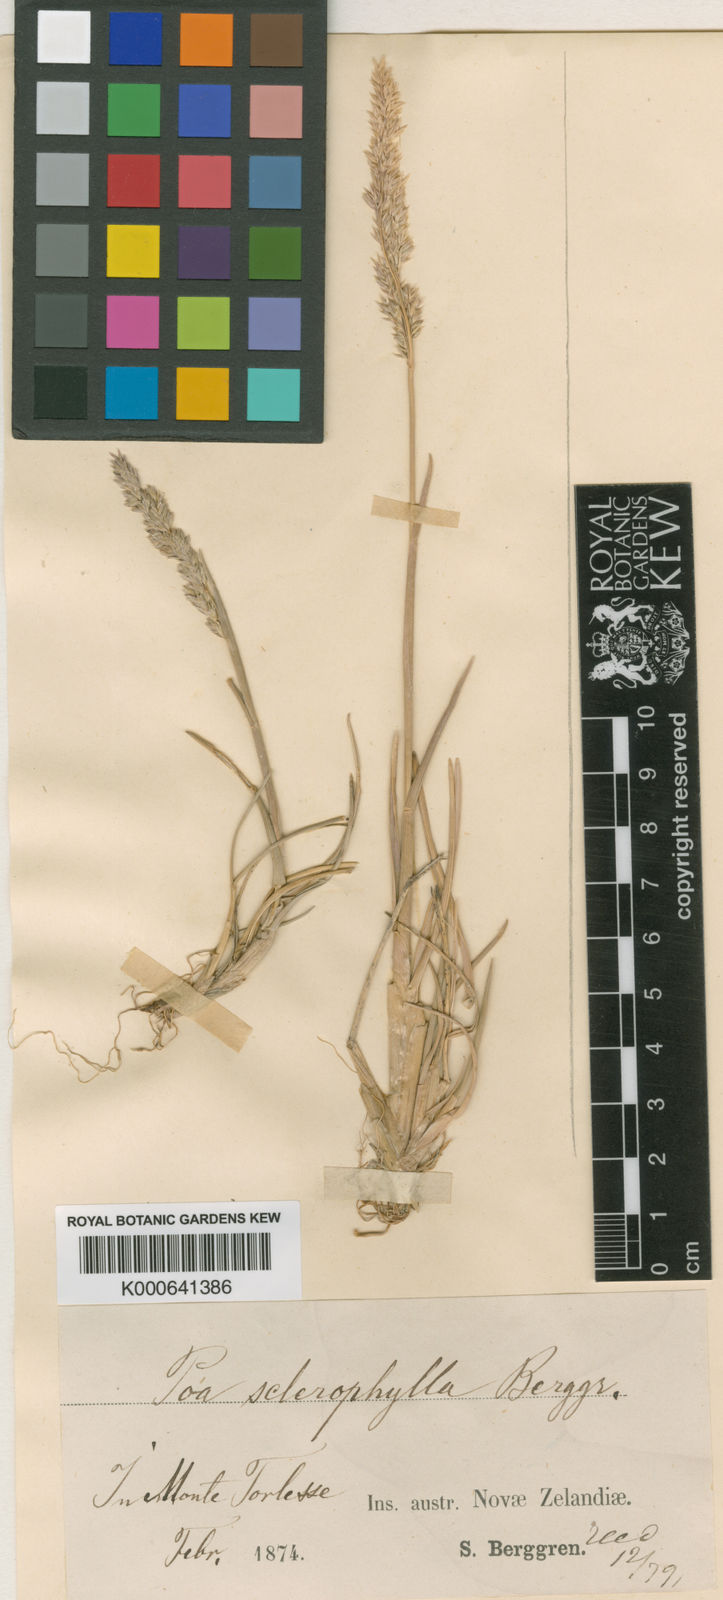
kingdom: Plantae
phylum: Tracheophyta
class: Liliopsida
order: Poales
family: Poaceae
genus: Eragrostis
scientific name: Eragrostis sclerophylla
